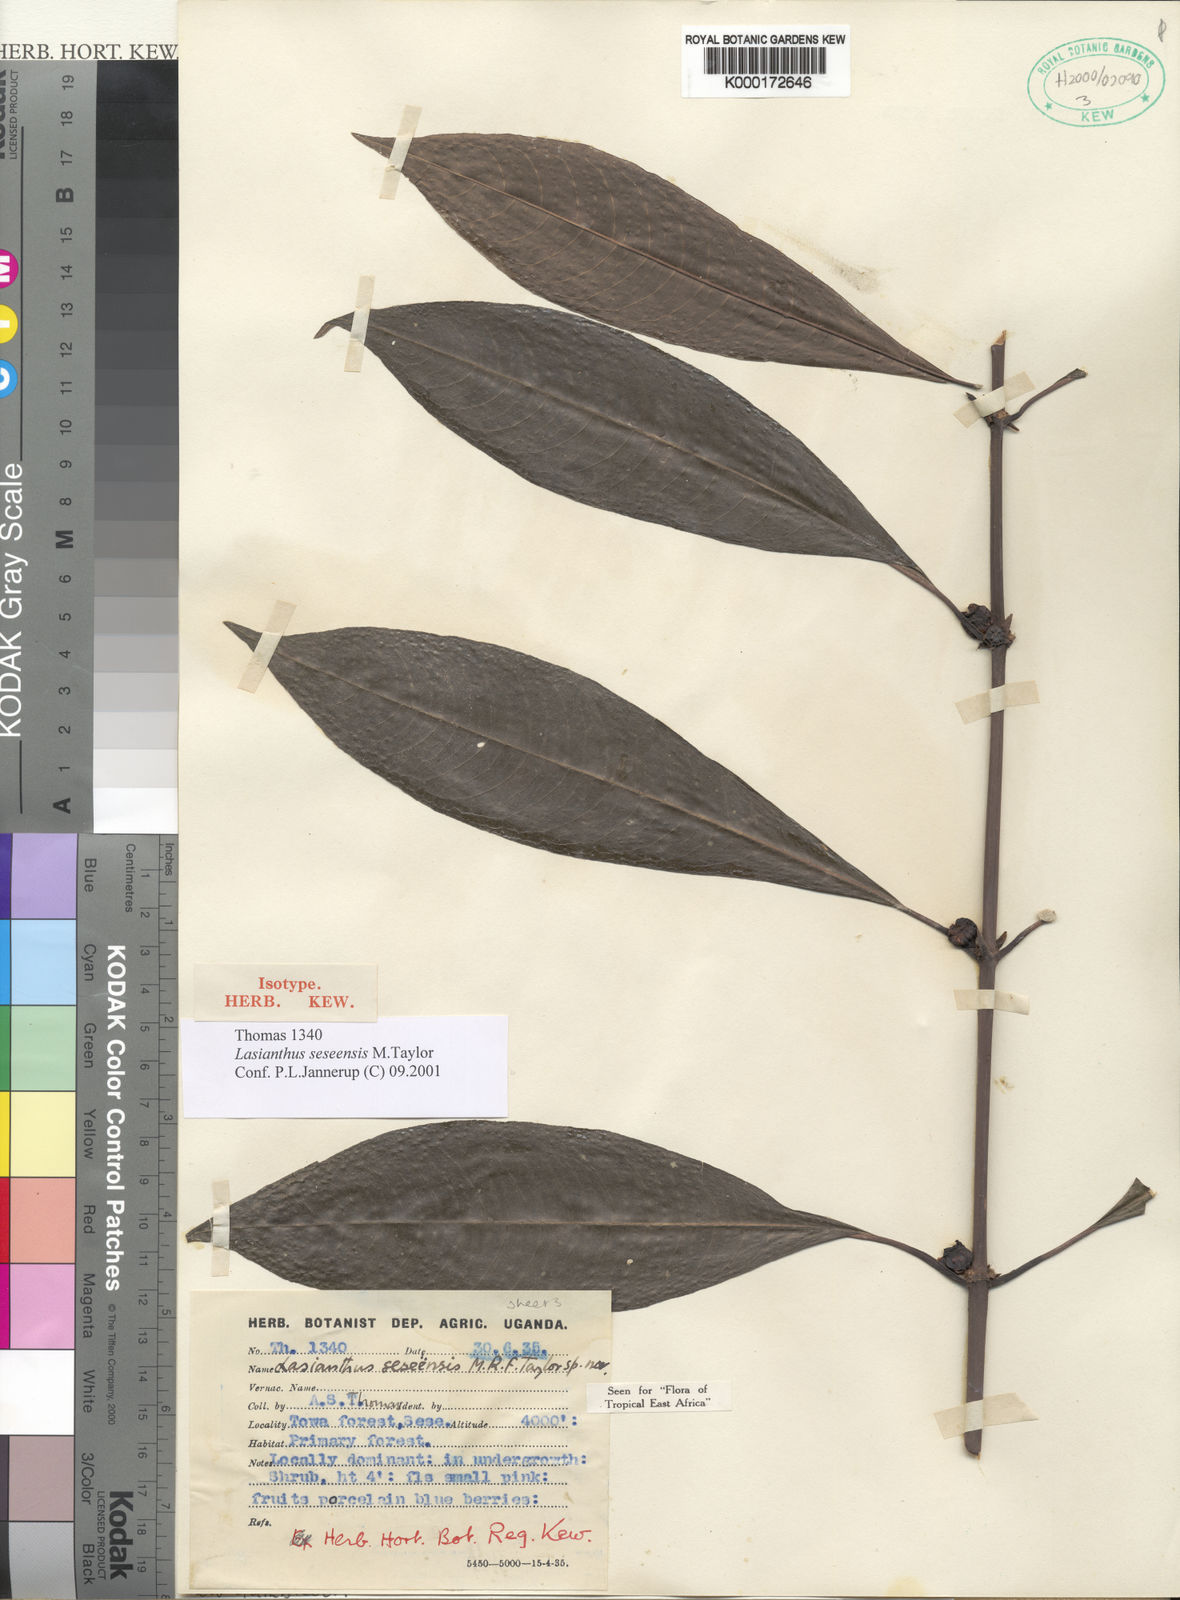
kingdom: Plantae
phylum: Tracheophyta
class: Magnoliopsida
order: Gentianales
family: Rubiaceae
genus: Lasianthus
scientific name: Lasianthus batangensis
